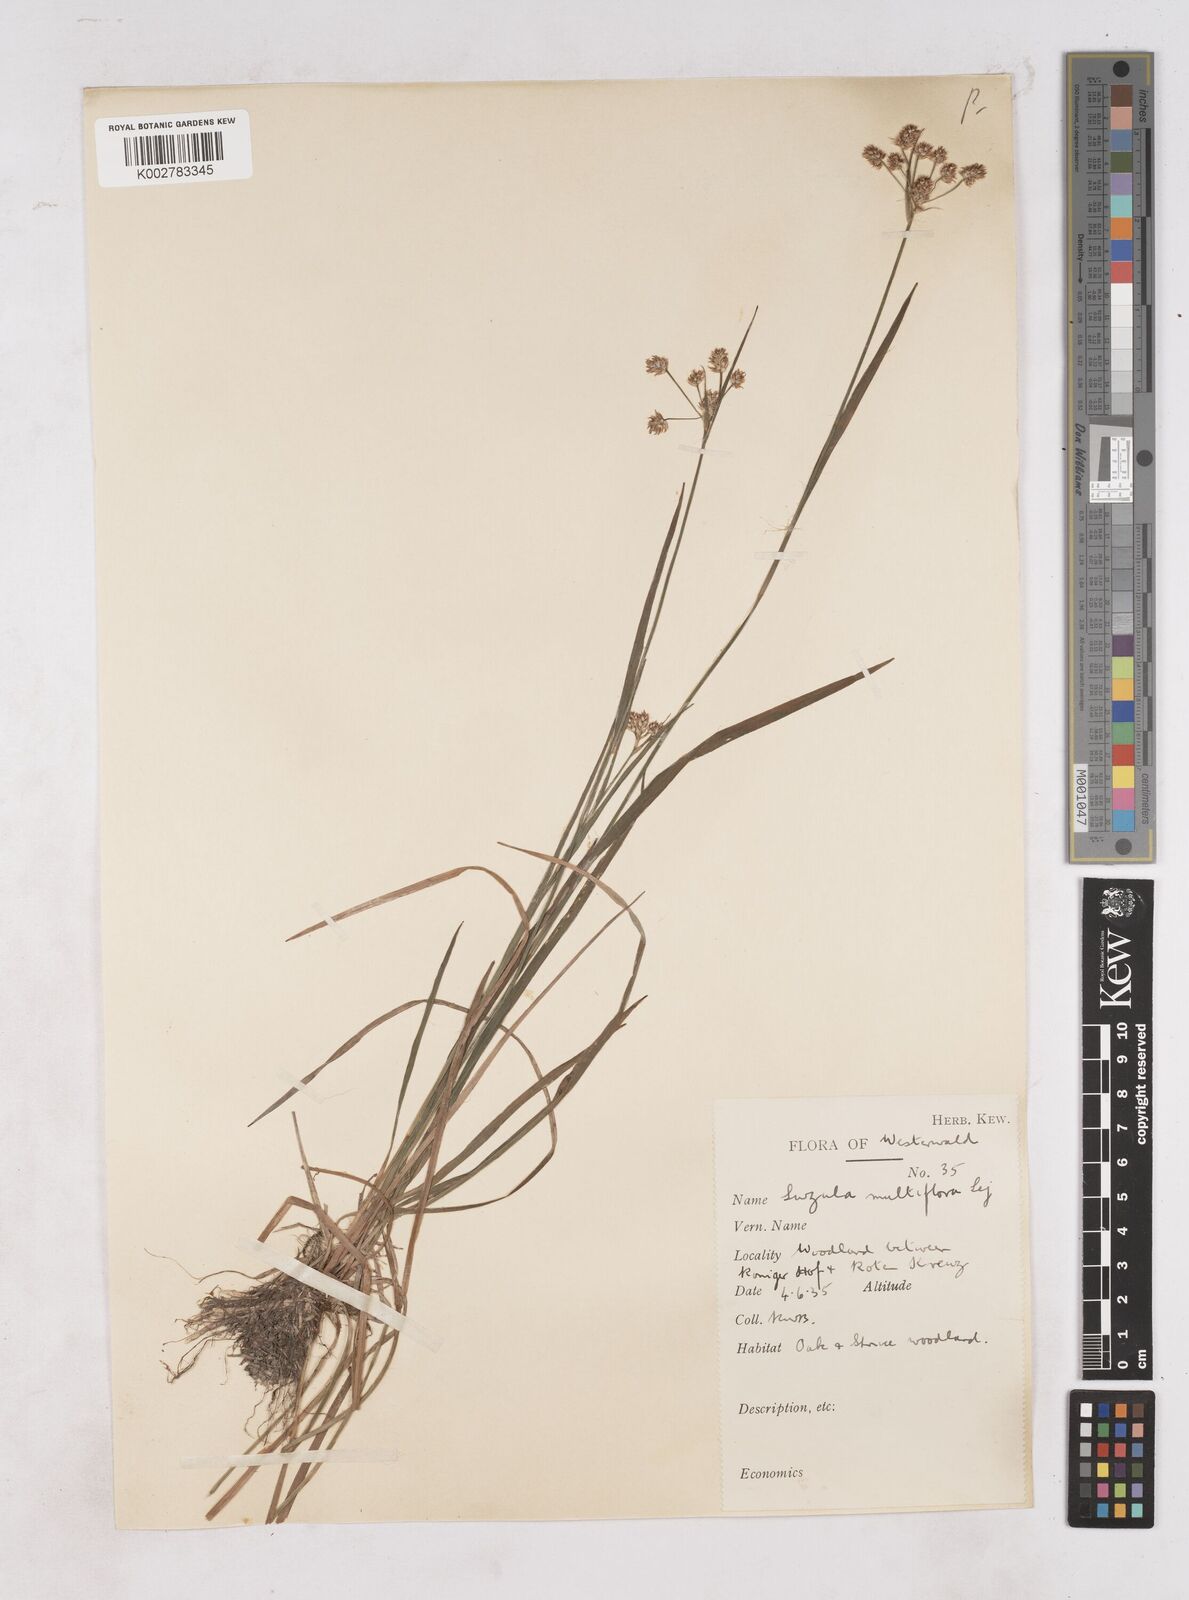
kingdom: Plantae
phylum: Tracheophyta
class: Liliopsida
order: Poales
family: Juncaceae
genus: Luzula
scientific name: Luzula multiflora
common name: Heath wood-rush
